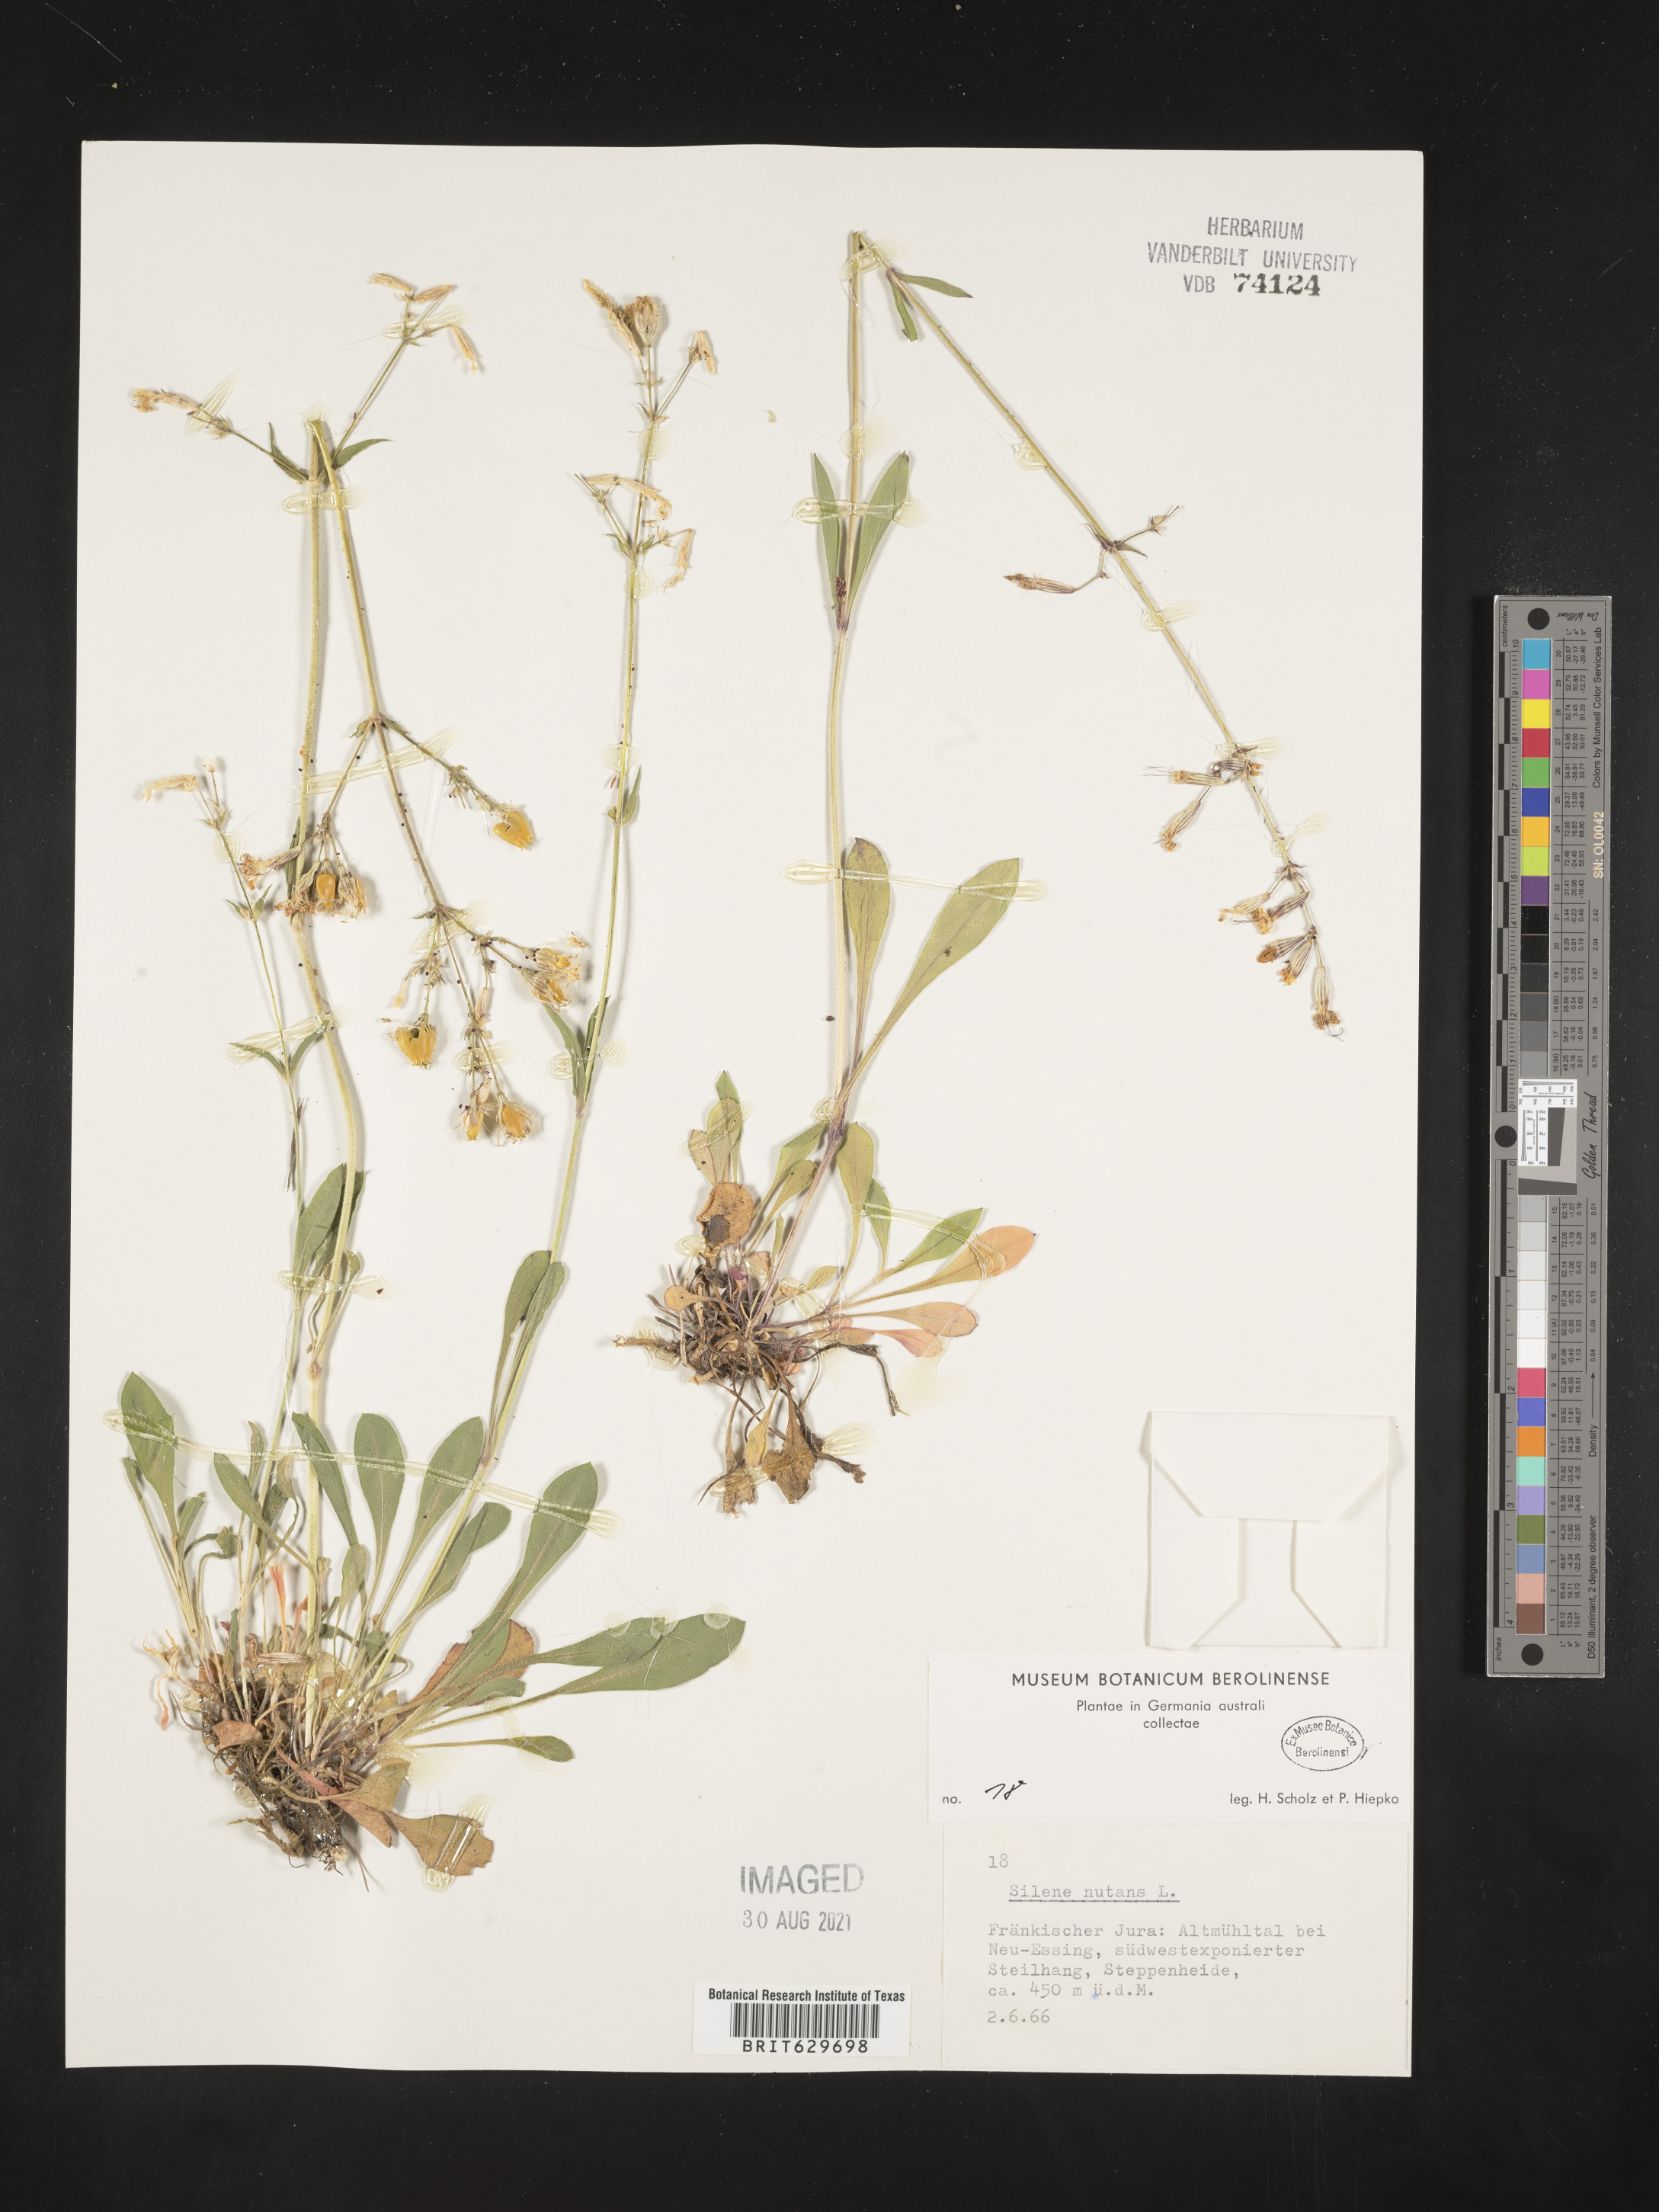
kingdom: Plantae
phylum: Tracheophyta
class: Magnoliopsida
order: Caryophyllales
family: Caryophyllaceae
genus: Silene
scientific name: Silene nutans
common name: Nottingham catchfly
